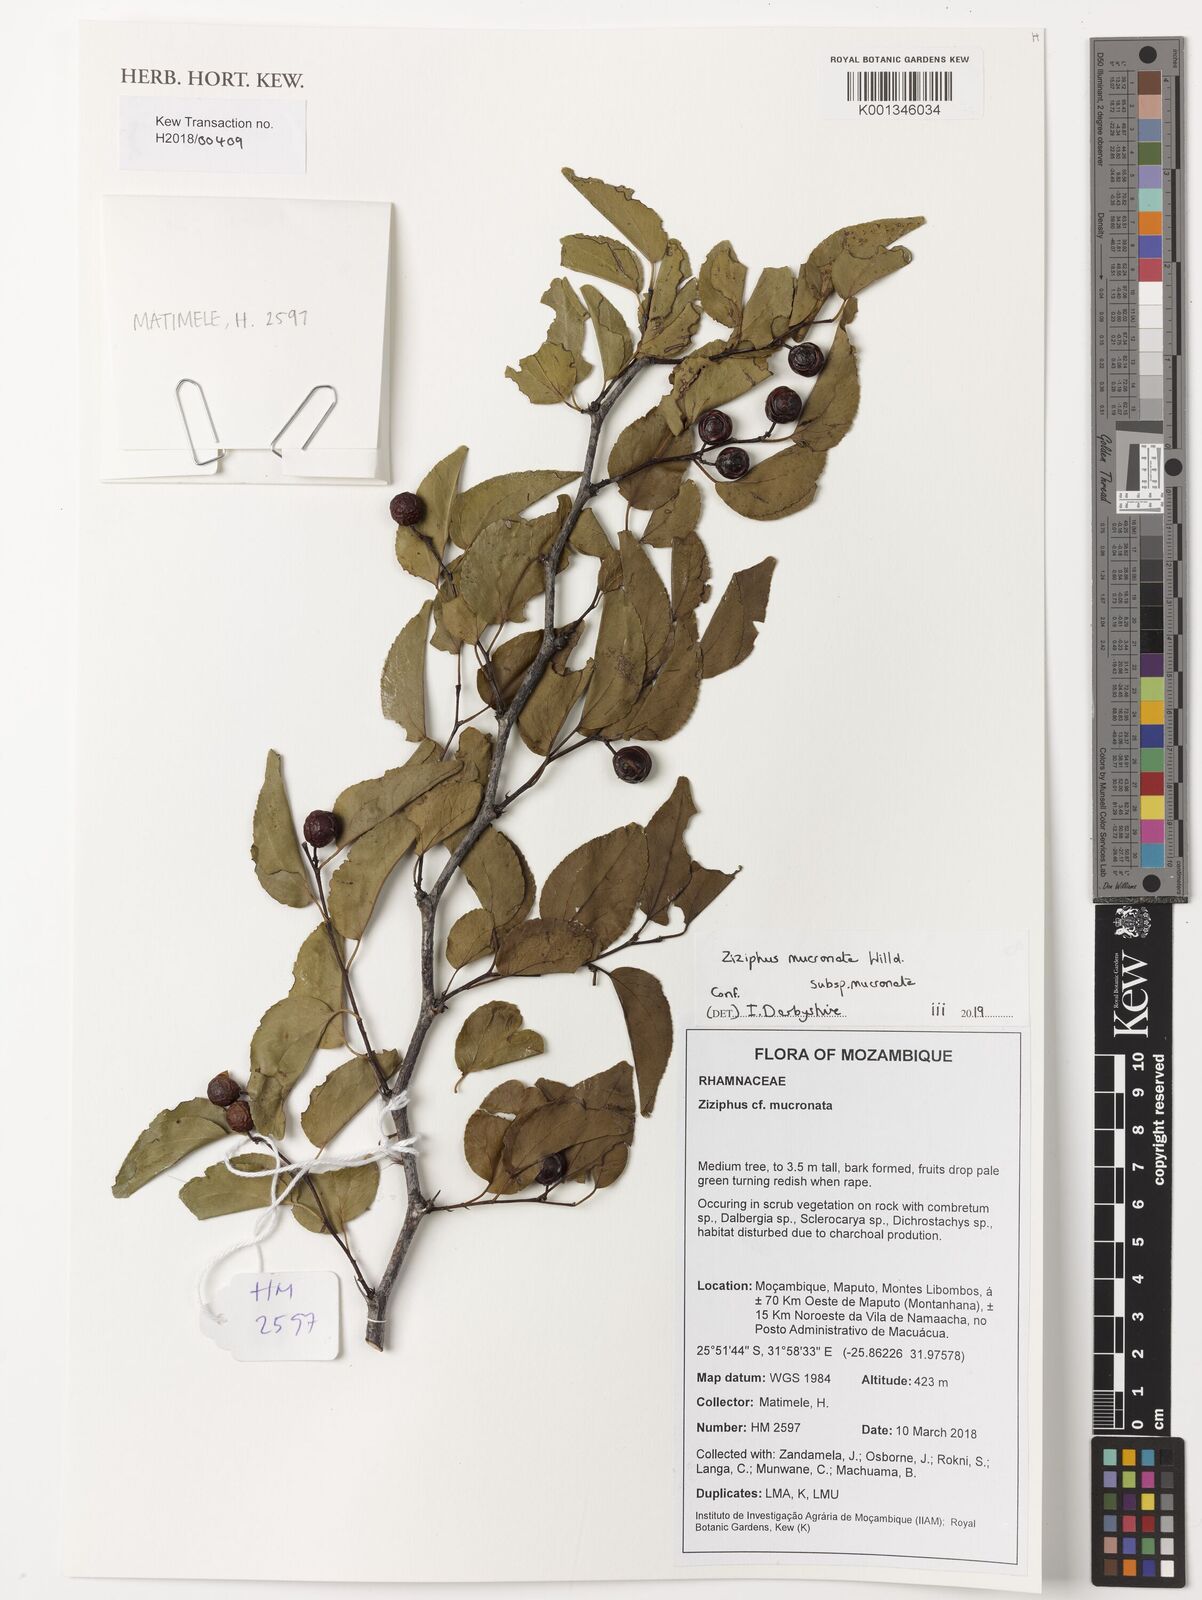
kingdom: Plantae
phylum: Tracheophyta
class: Magnoliopsida
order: Rosales
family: Rhamnaceae
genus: Ziziphus
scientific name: Ziziphus mucronata
